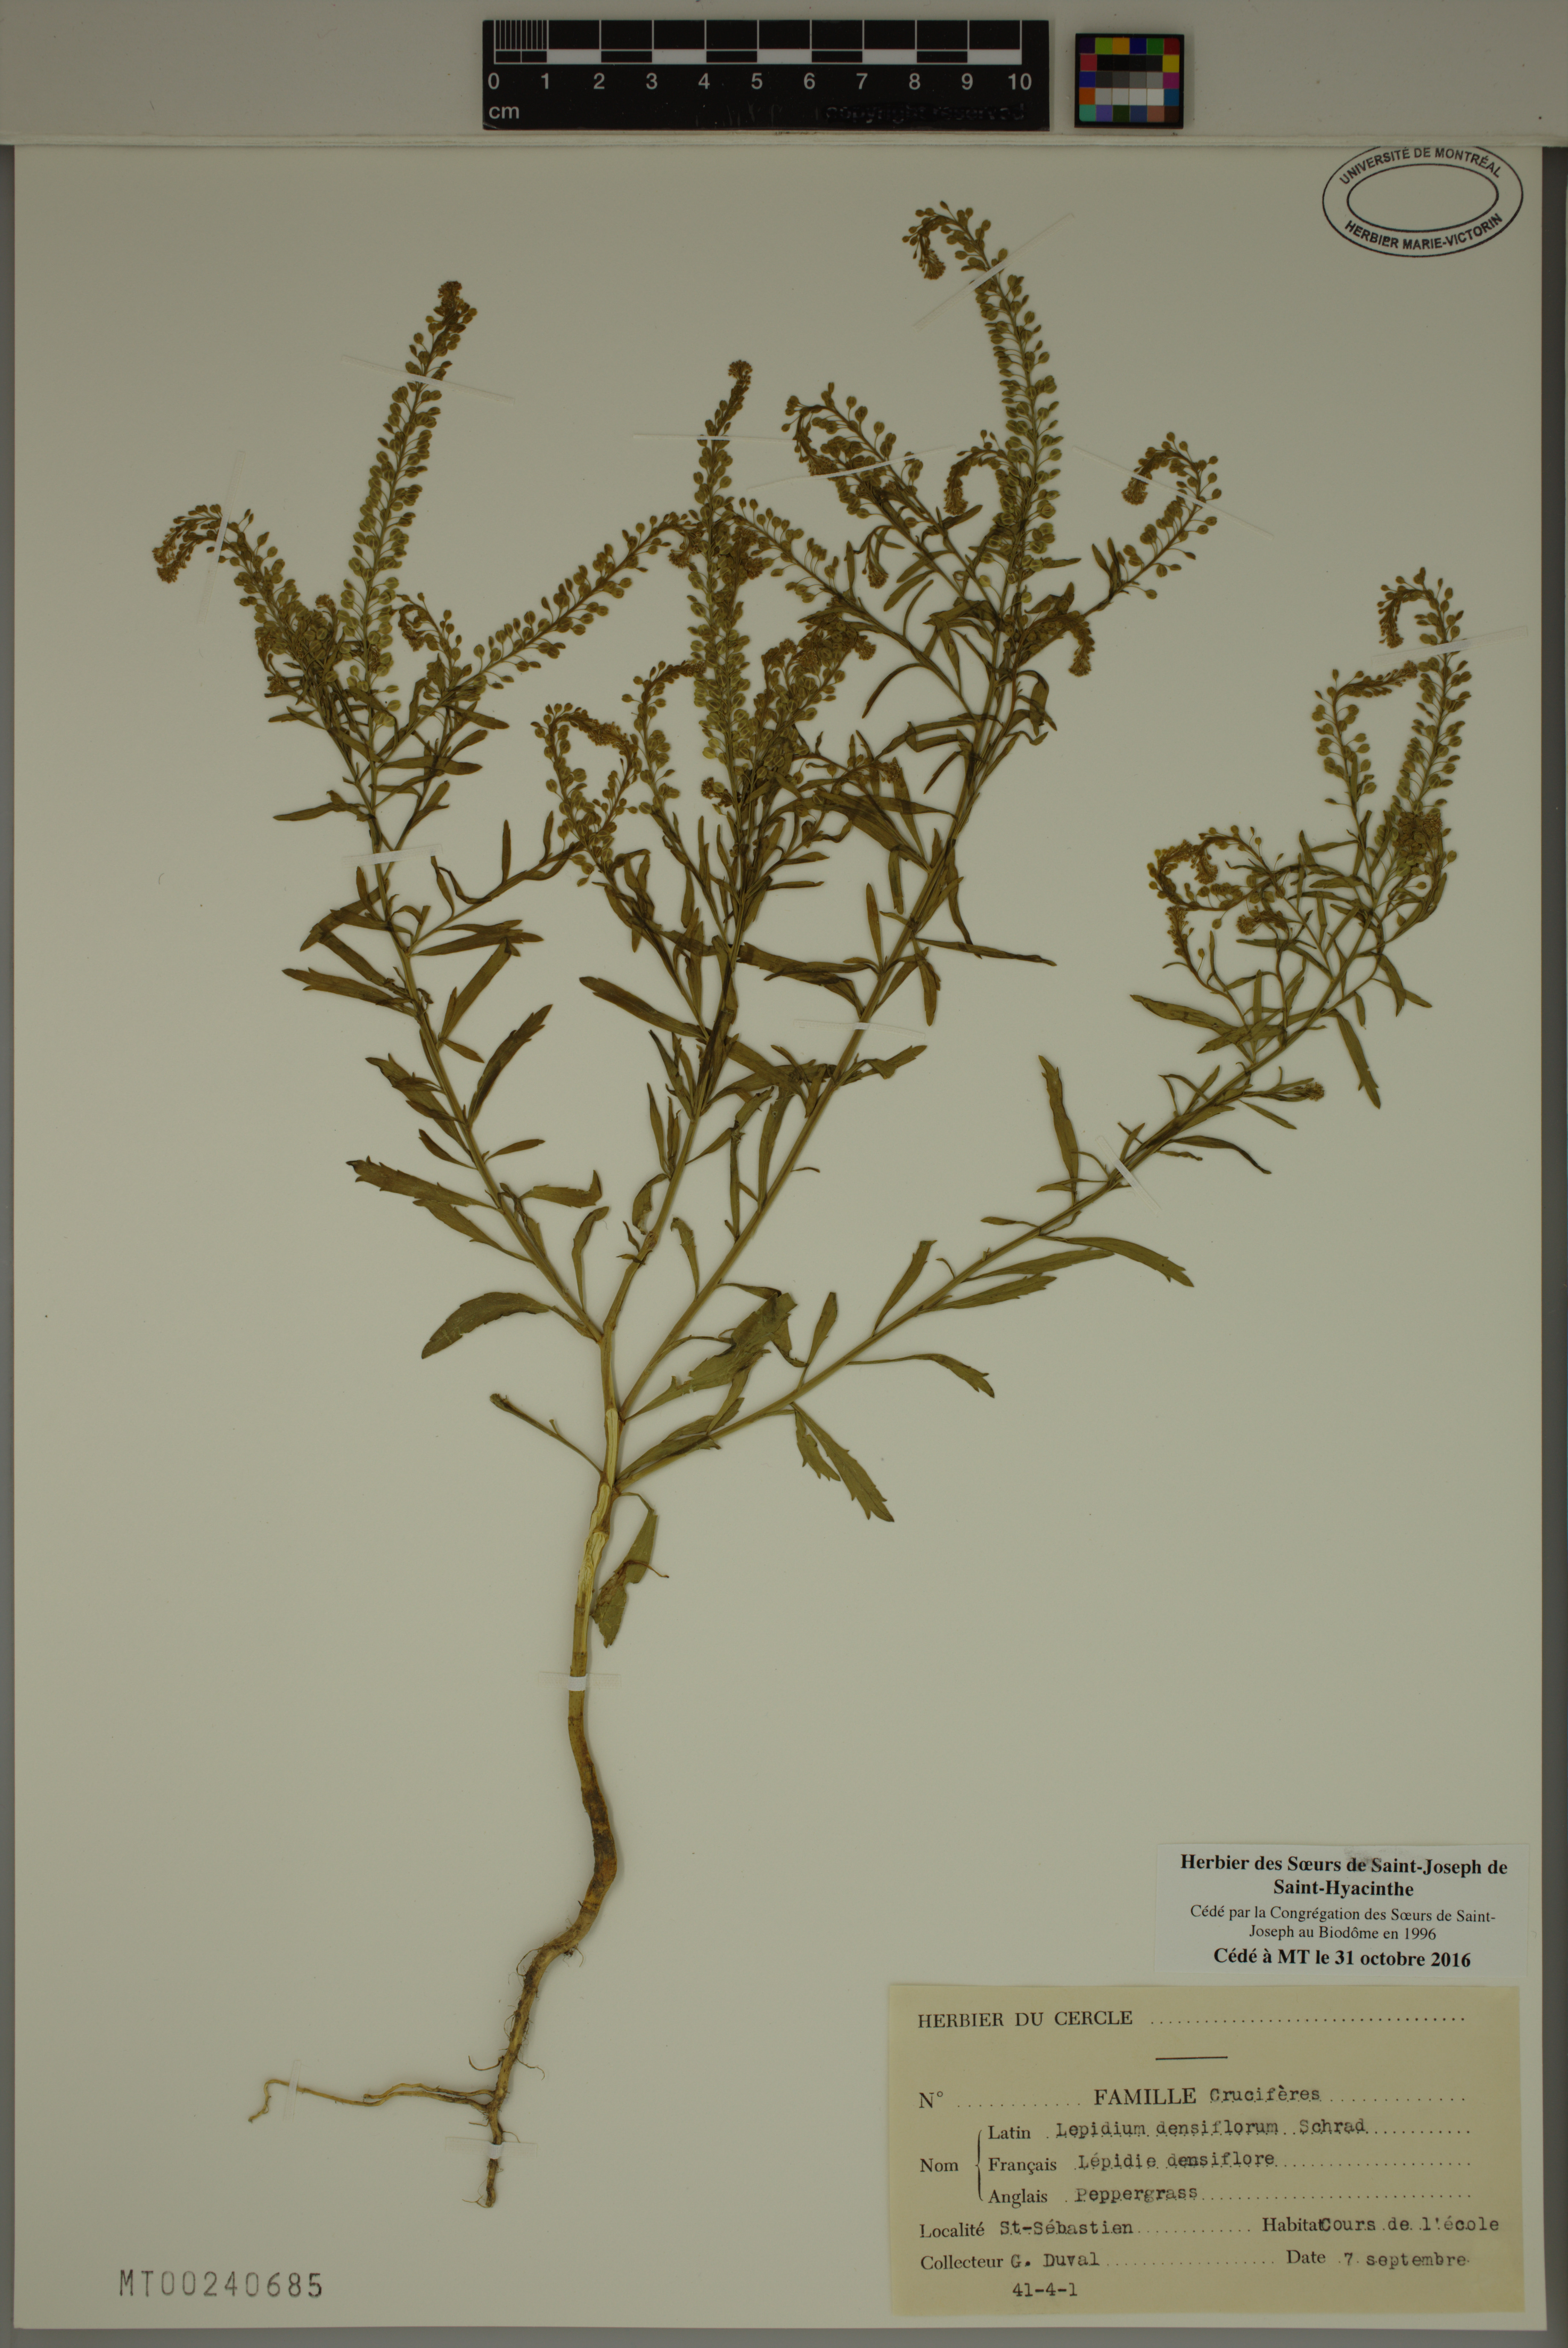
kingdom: Plantae
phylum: Tracheophyta
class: Magnoliopsida
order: Brassicales
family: Brassicaceae
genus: Lepidium
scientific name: Lepidium densiflorum
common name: Miner's pepperwort
